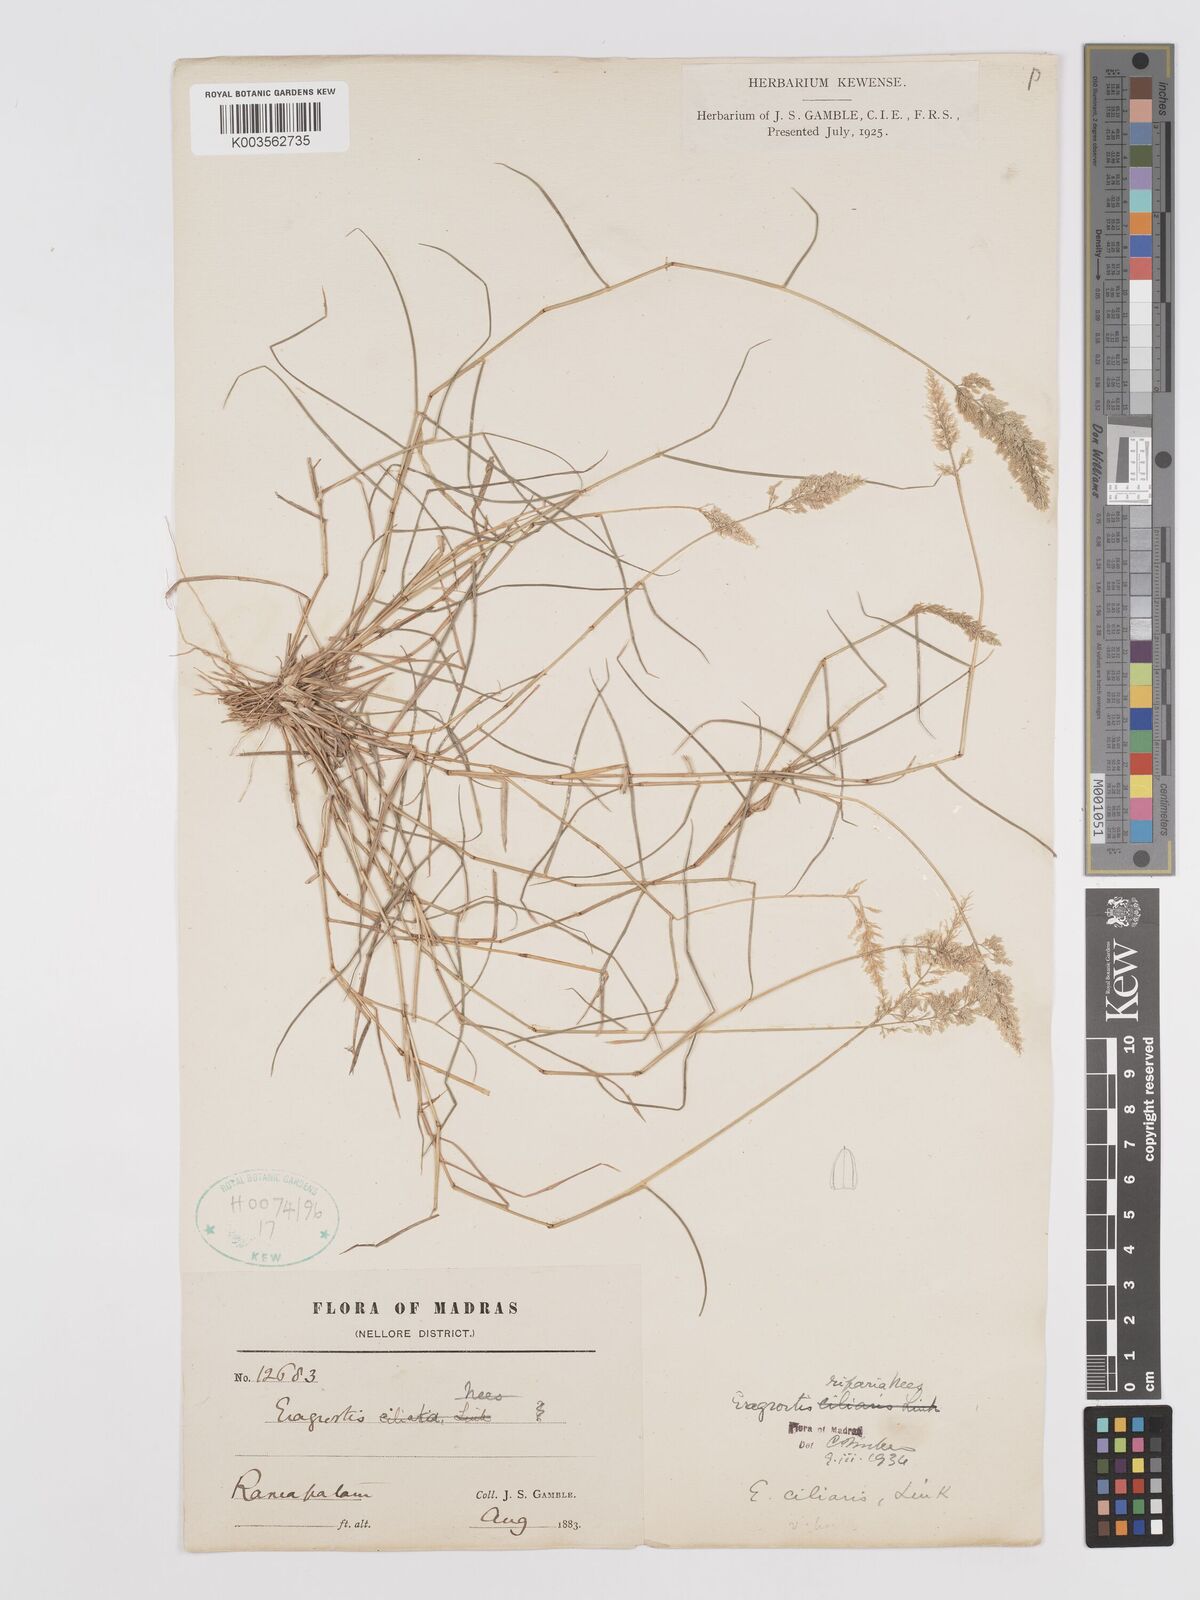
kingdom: Plantae
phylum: Tracheophyta
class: Liliopsida
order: Poales
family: Poaceae
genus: Eragrostis
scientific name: Eragrostis riparia
